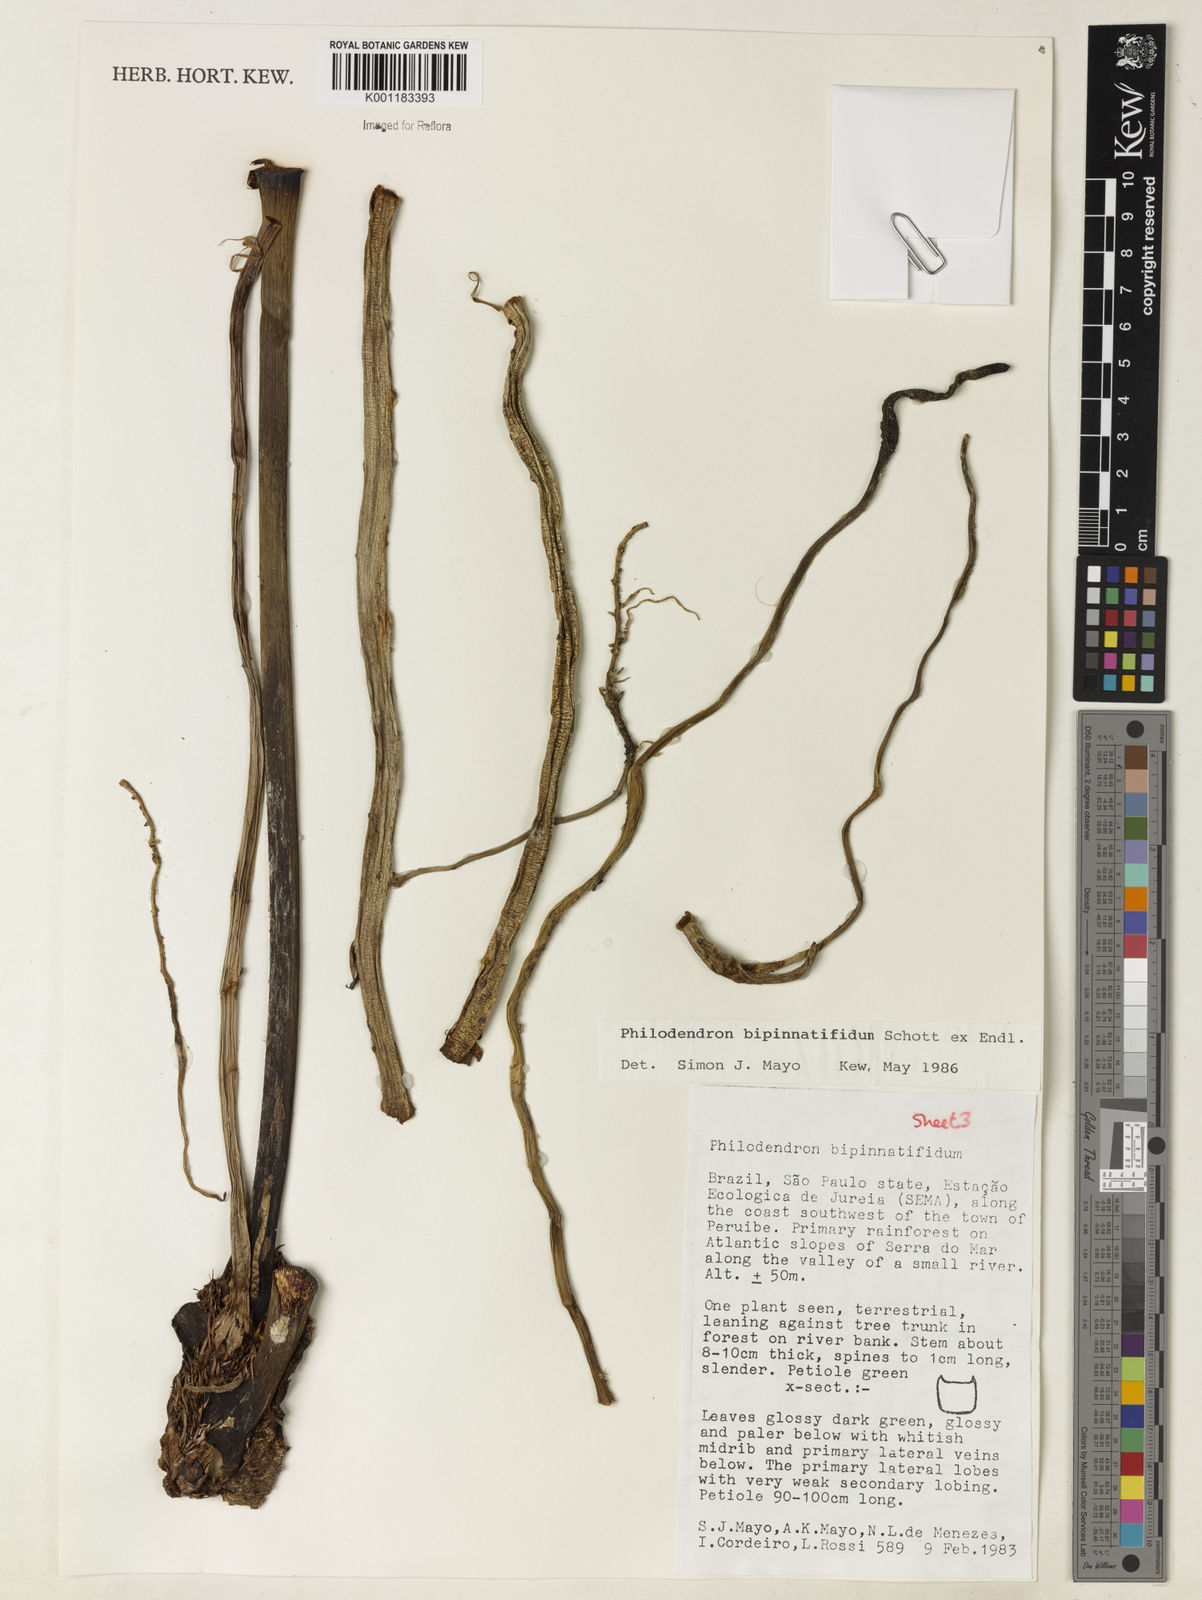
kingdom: Plantae
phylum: Tracheophyta
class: Liliopsida
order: Alismatales
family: Araceae
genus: Philodendron
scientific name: Philodendron
